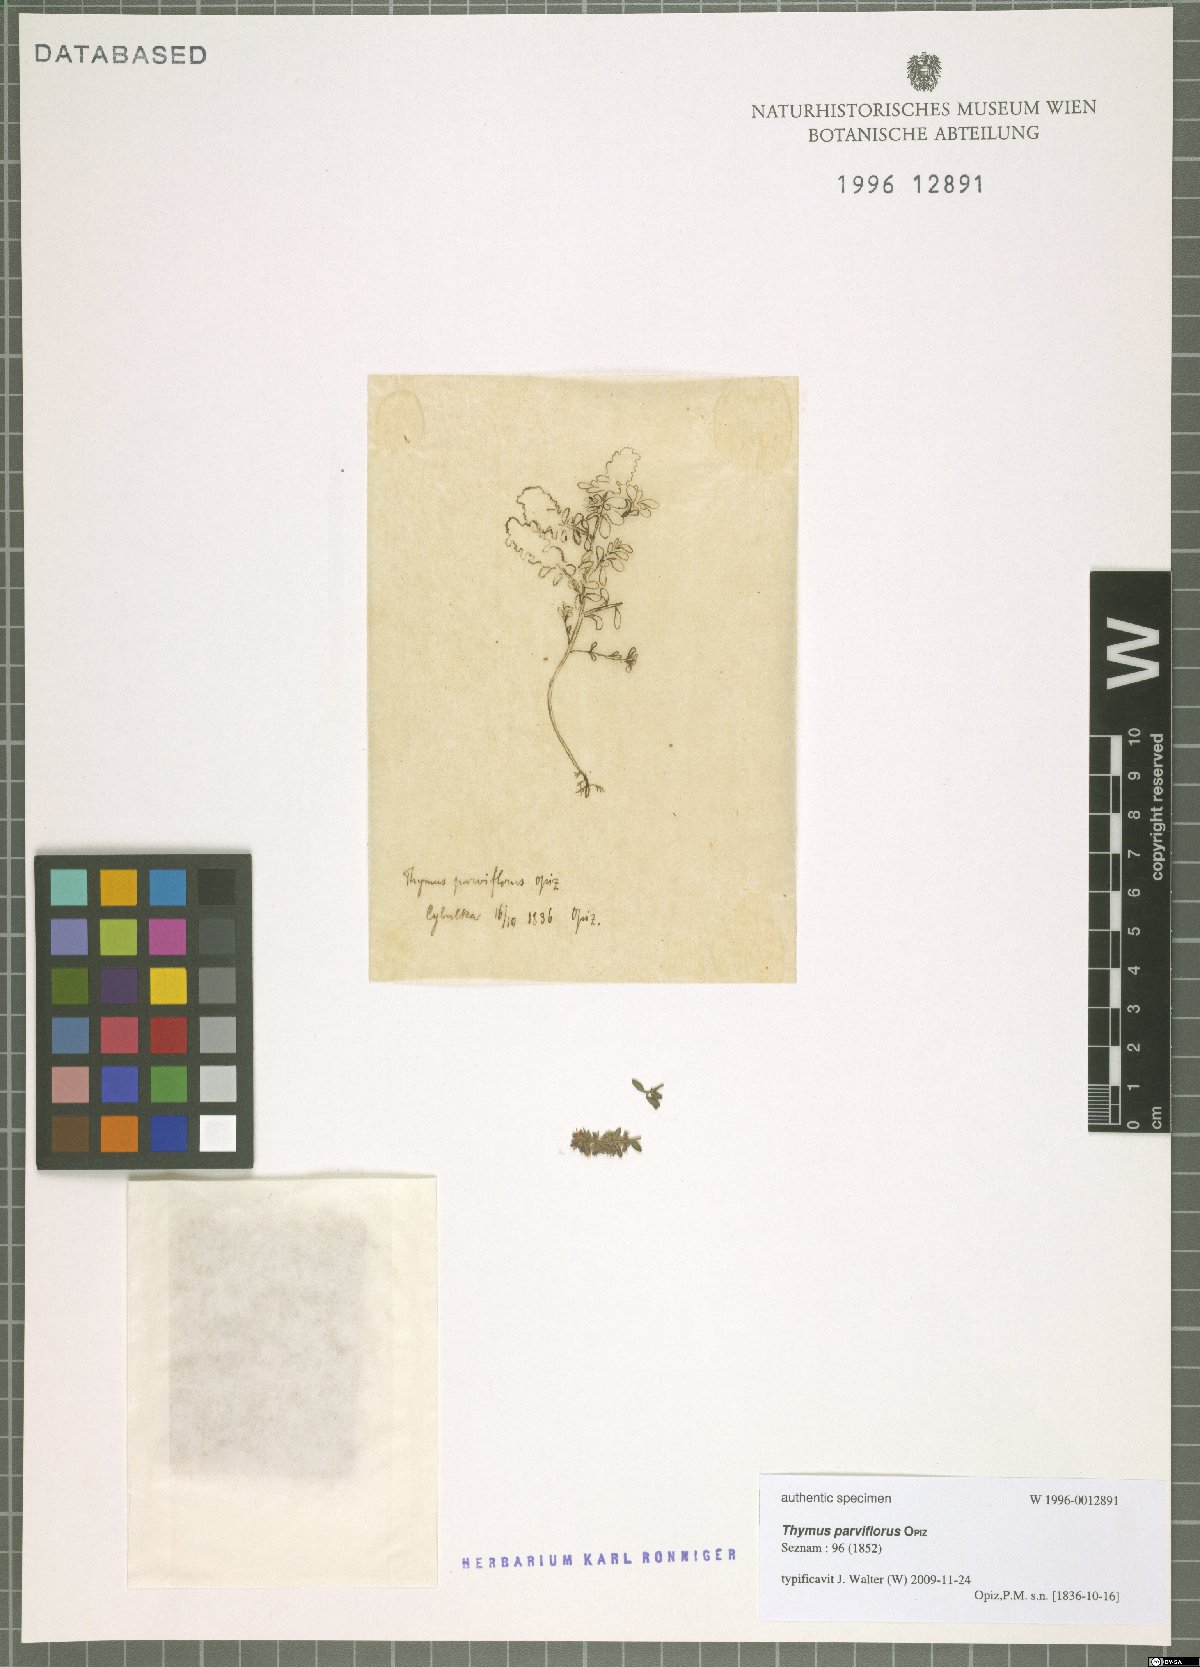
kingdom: Plantae
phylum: Tracheophyta
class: Magnoliopsida
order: Lamiales
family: Lamiaceae
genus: Thymus
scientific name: Thymus pulegioides
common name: Large thyme
